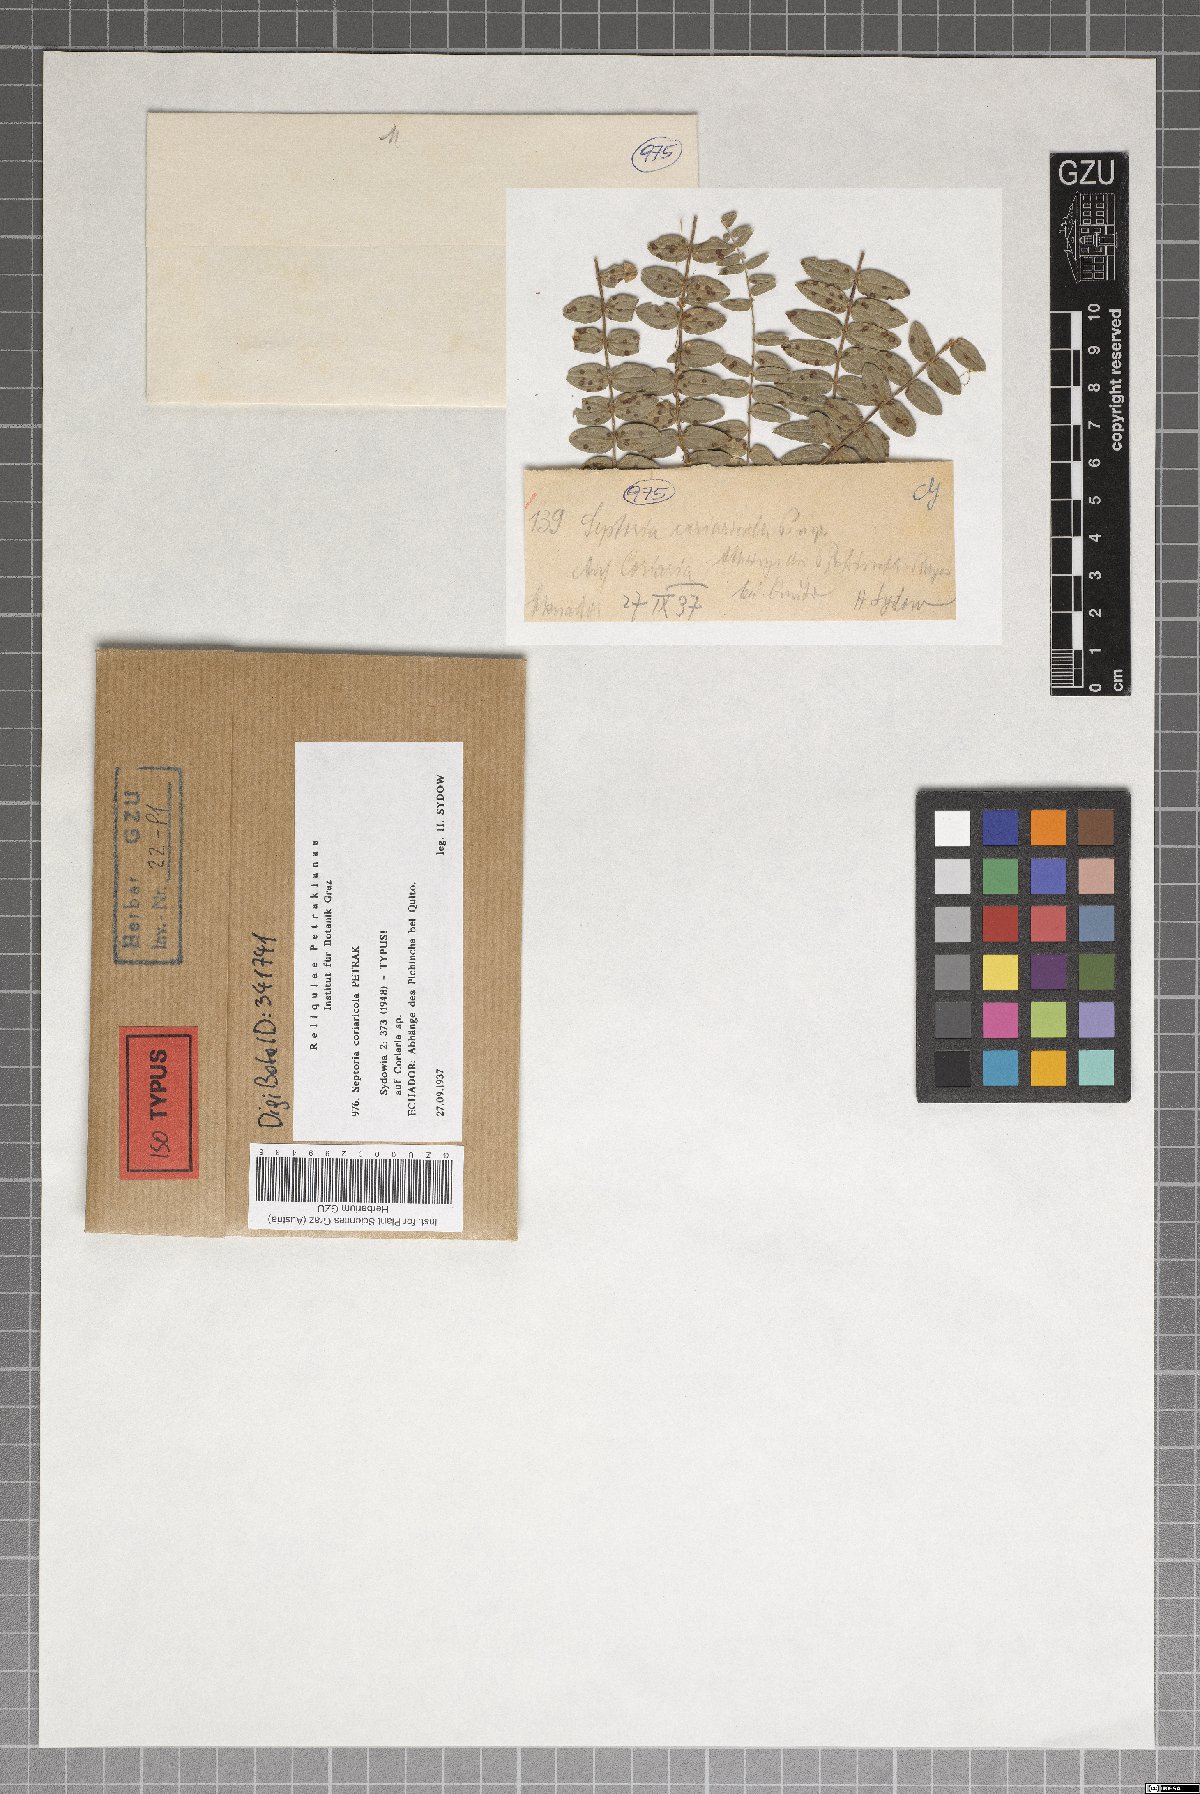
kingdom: Fungi
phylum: Ascomycota
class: Dothideomycetes
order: Mycosphaerellales
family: Mycosphaerellaceae
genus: Septoria
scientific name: Septoria
